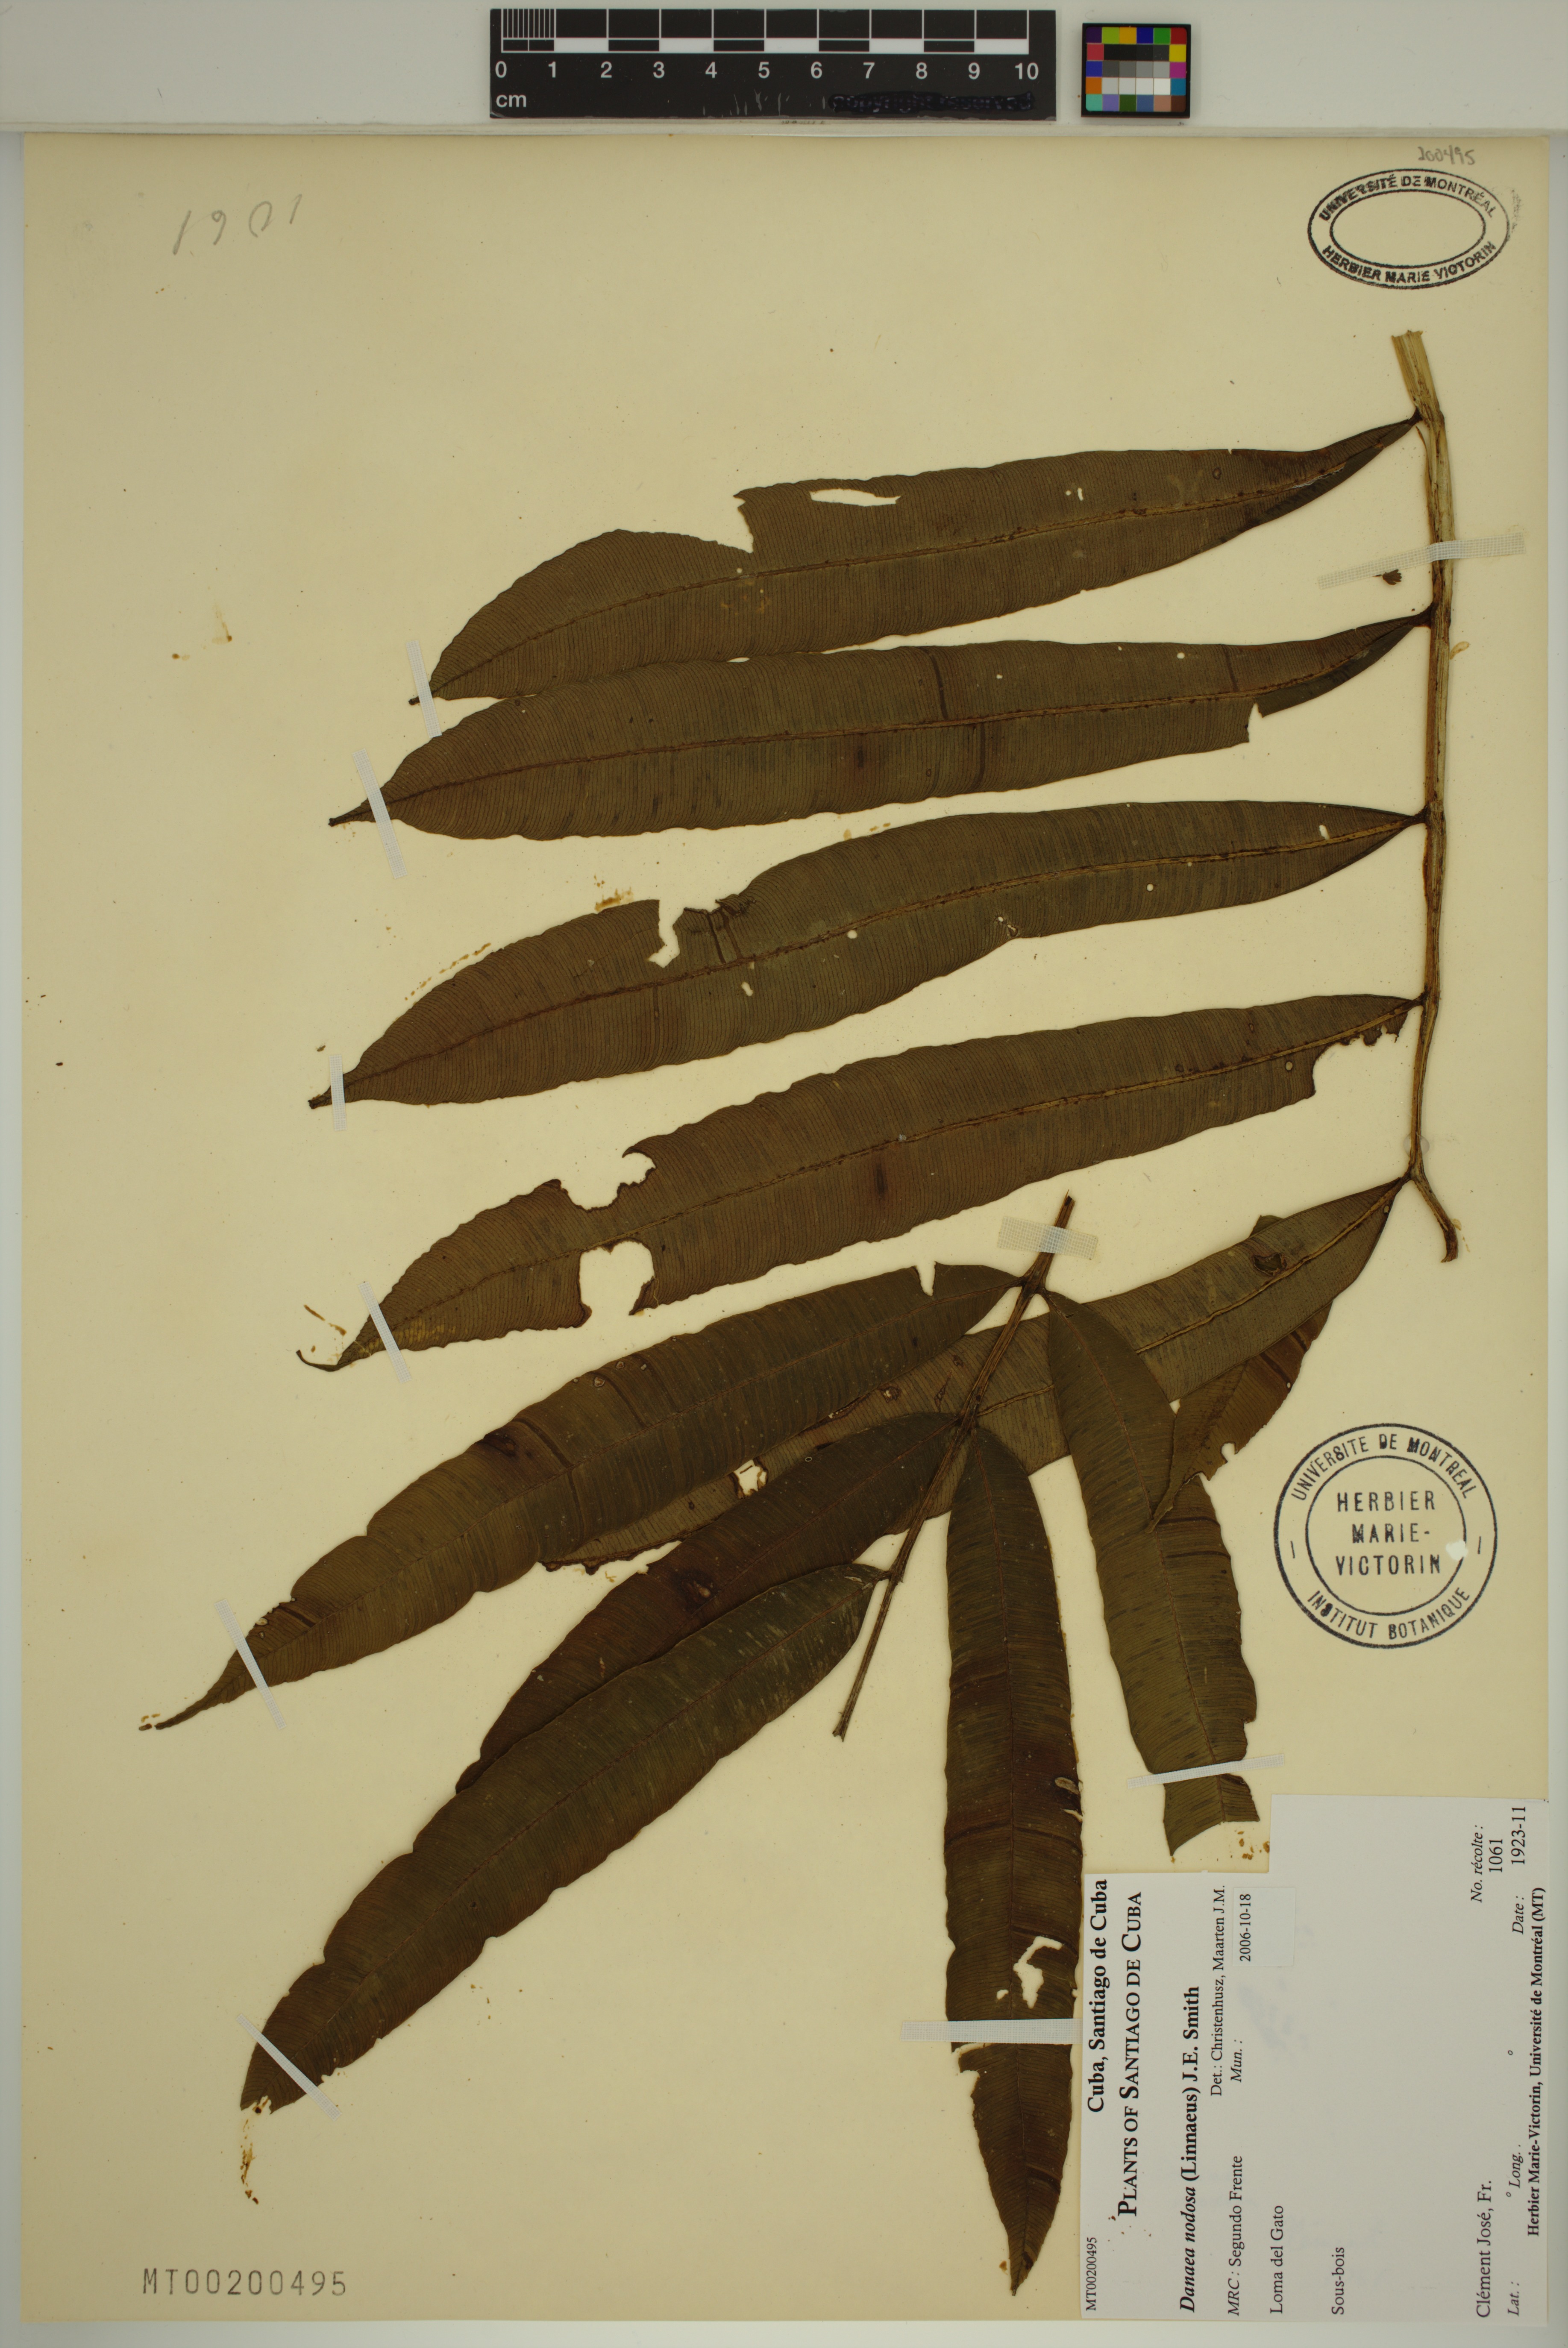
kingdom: Plantae
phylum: Tracheophyta
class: Polypodiopsida
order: Marattiales
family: Marattiaceae
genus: Danaea
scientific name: Danaea nodosa
